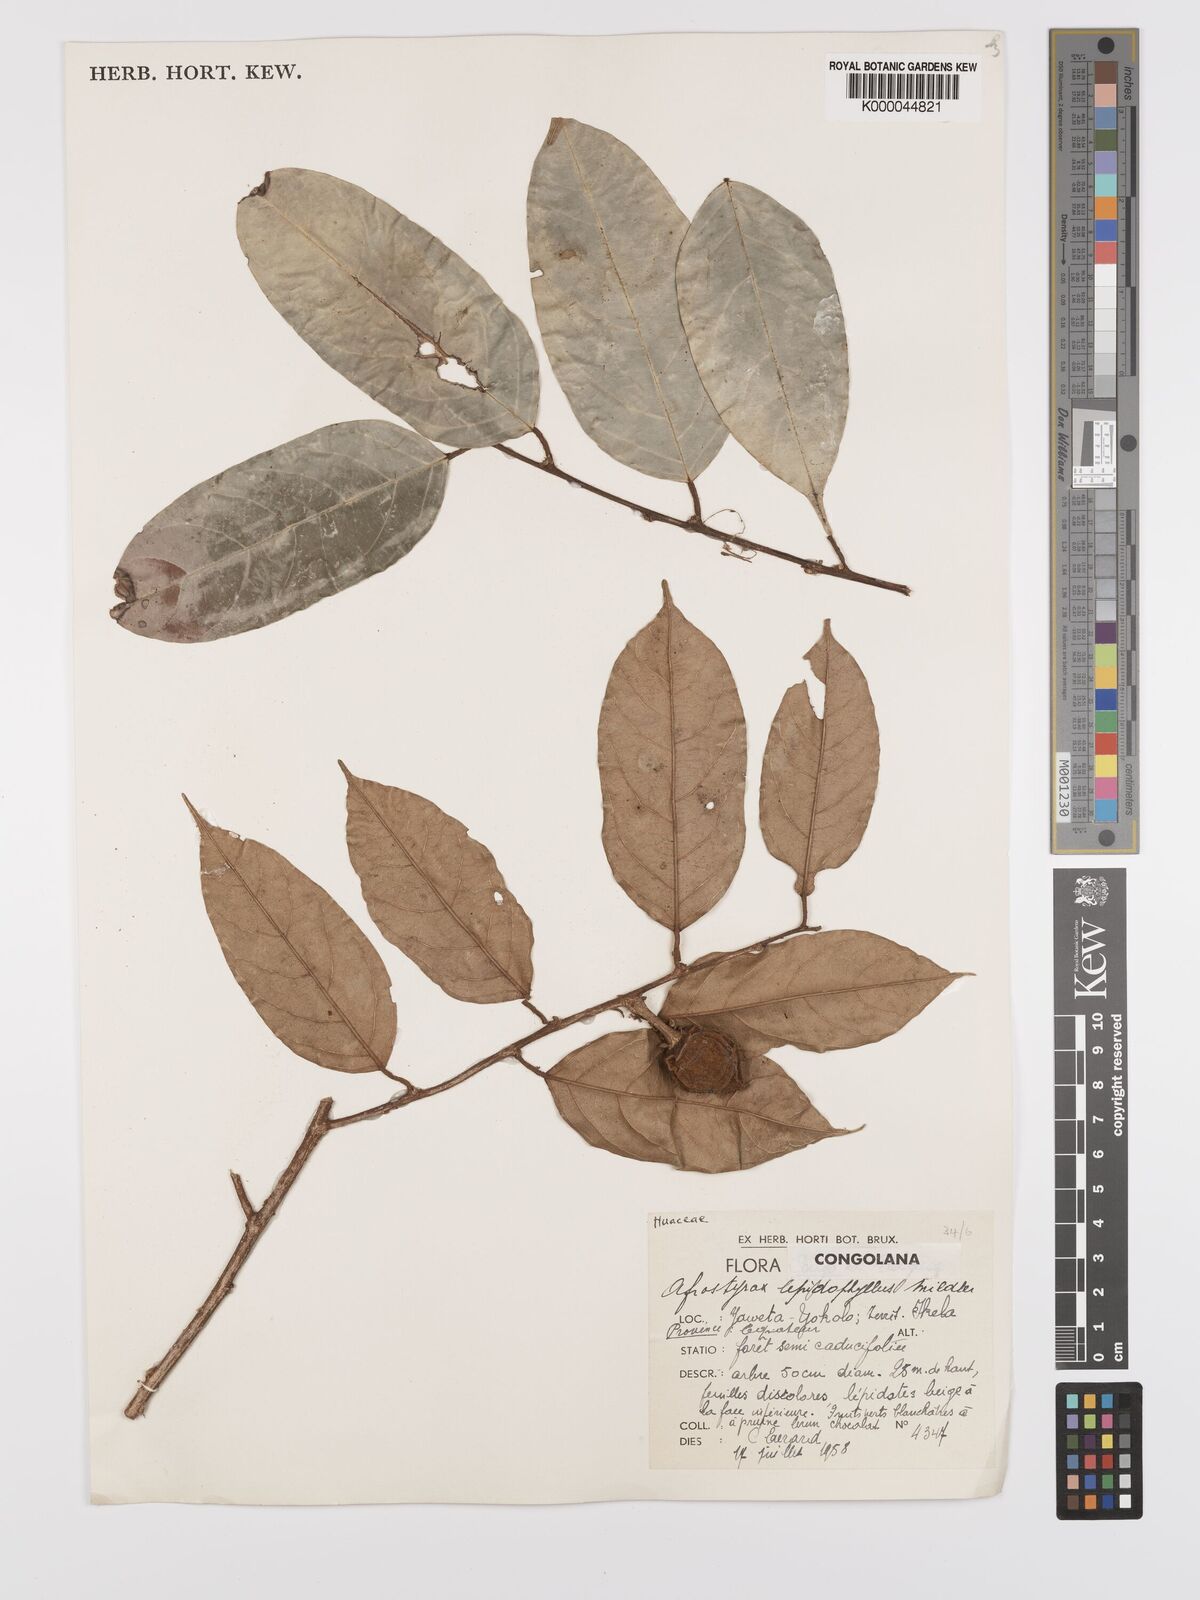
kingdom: Plantae
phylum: Tracheophyta
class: Magnoliopsida
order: Oxalidales
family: Huaceae
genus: Afrostyrax
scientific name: Afrostyrax lepidophyllus
